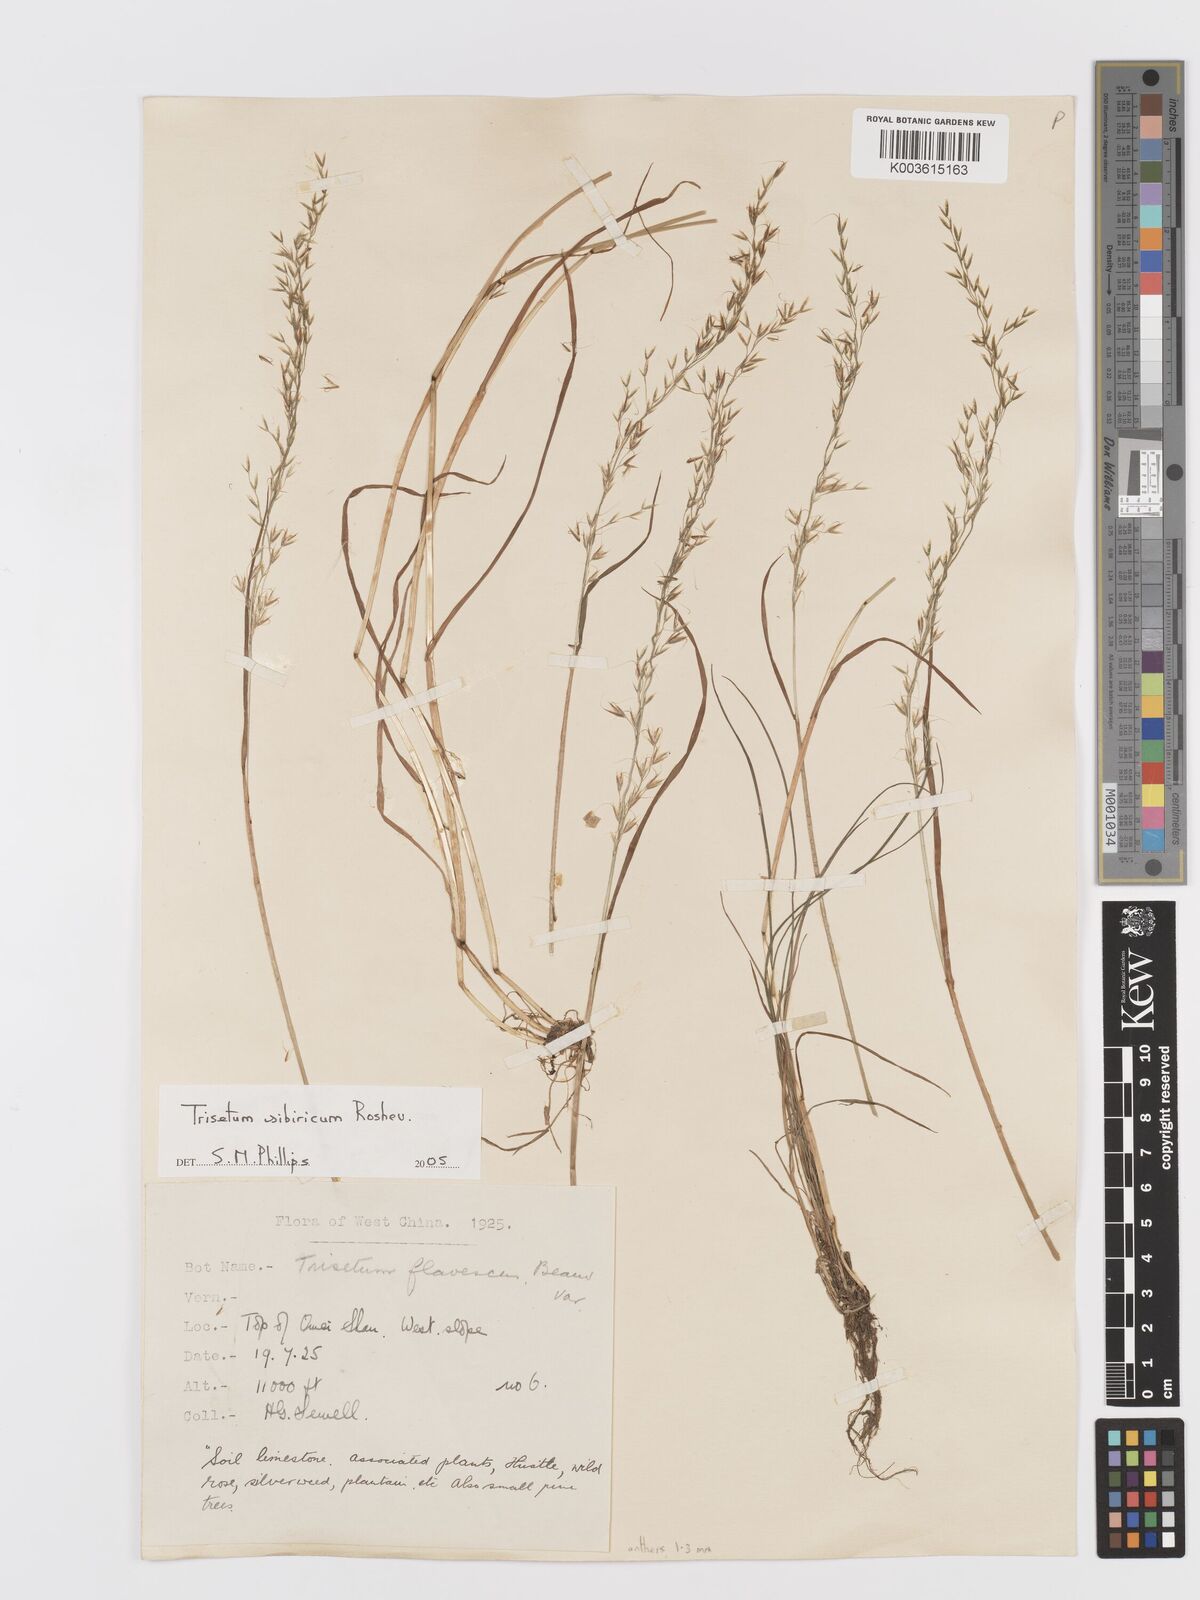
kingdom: Plantae
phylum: Tracheophyta
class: Liliopsida
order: Poales
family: Poaceae
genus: Sibirotrisetum
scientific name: Sibirotrisetum sibiricum
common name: Siberian false oat
